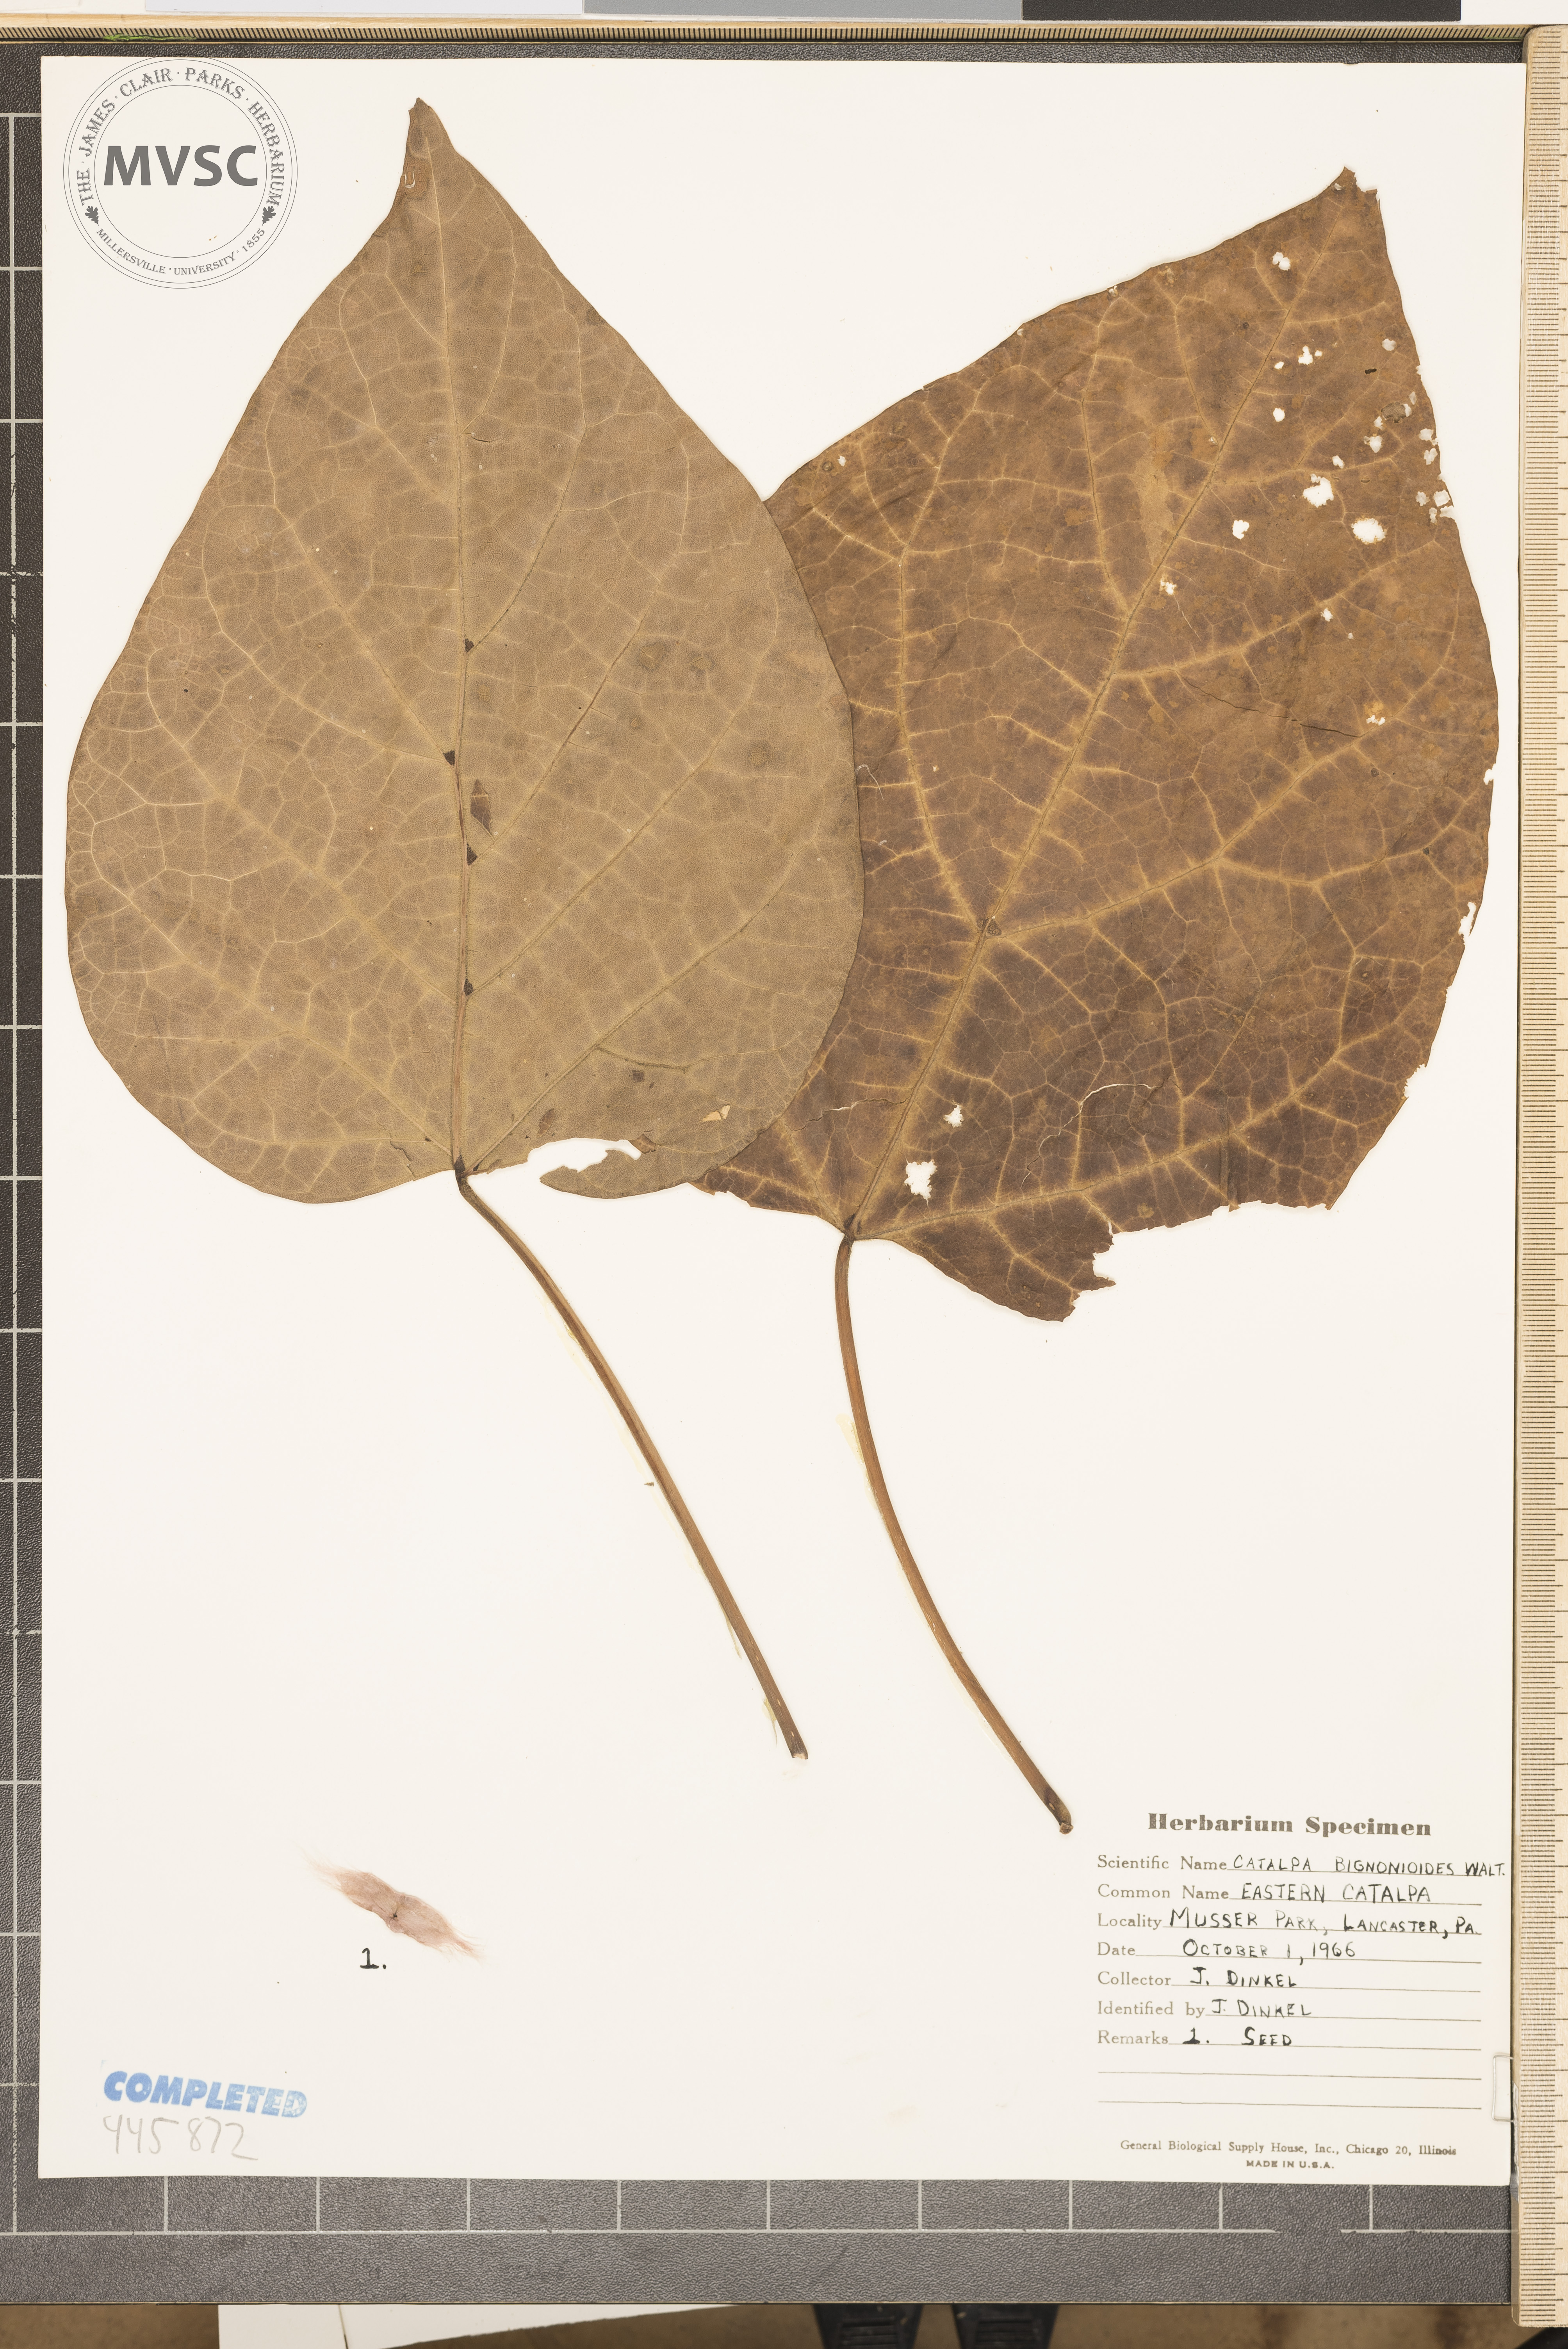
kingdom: Plantae
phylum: Tracheophyta
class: Magnoliopsida
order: Lamiales
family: Bignoniaceae
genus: Catalpa
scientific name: Catalpa bignonioides
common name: Southern catalpa
